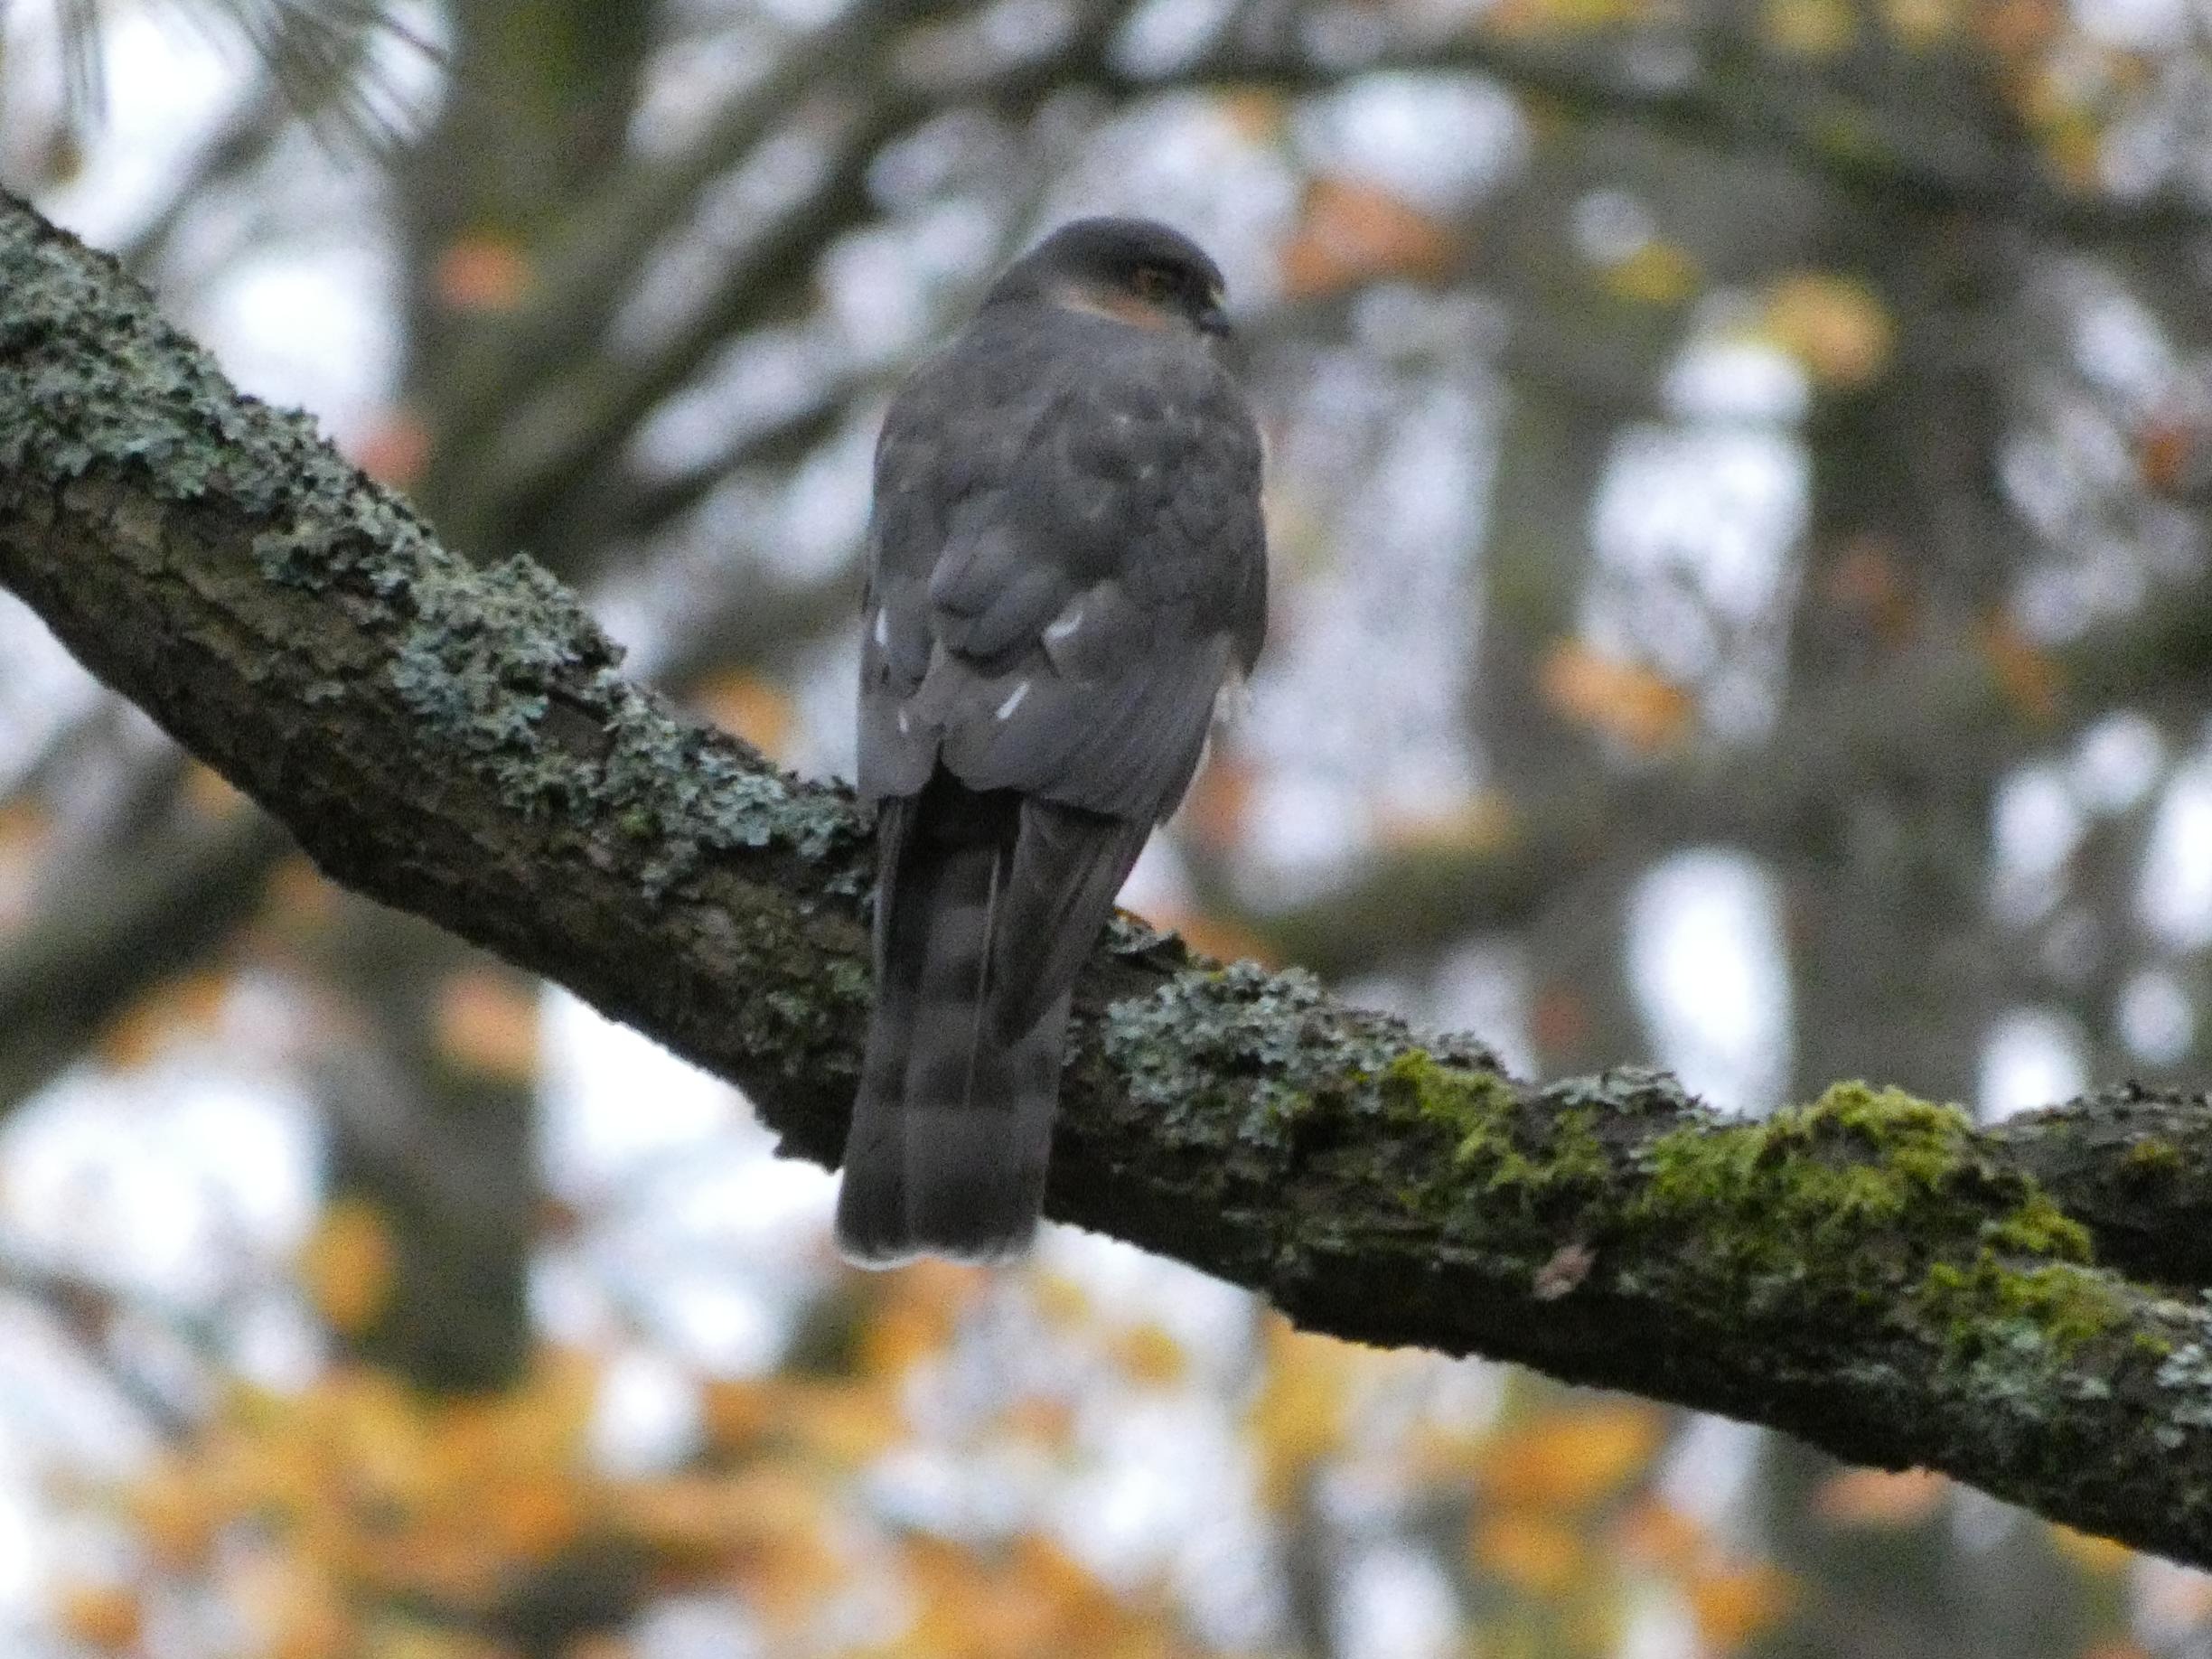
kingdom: Animalia
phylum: Chordata
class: Aves
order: Accipitriformes
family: Accipitridae
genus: Accipiter
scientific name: Accipiter nisus
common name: Spurvehøg
